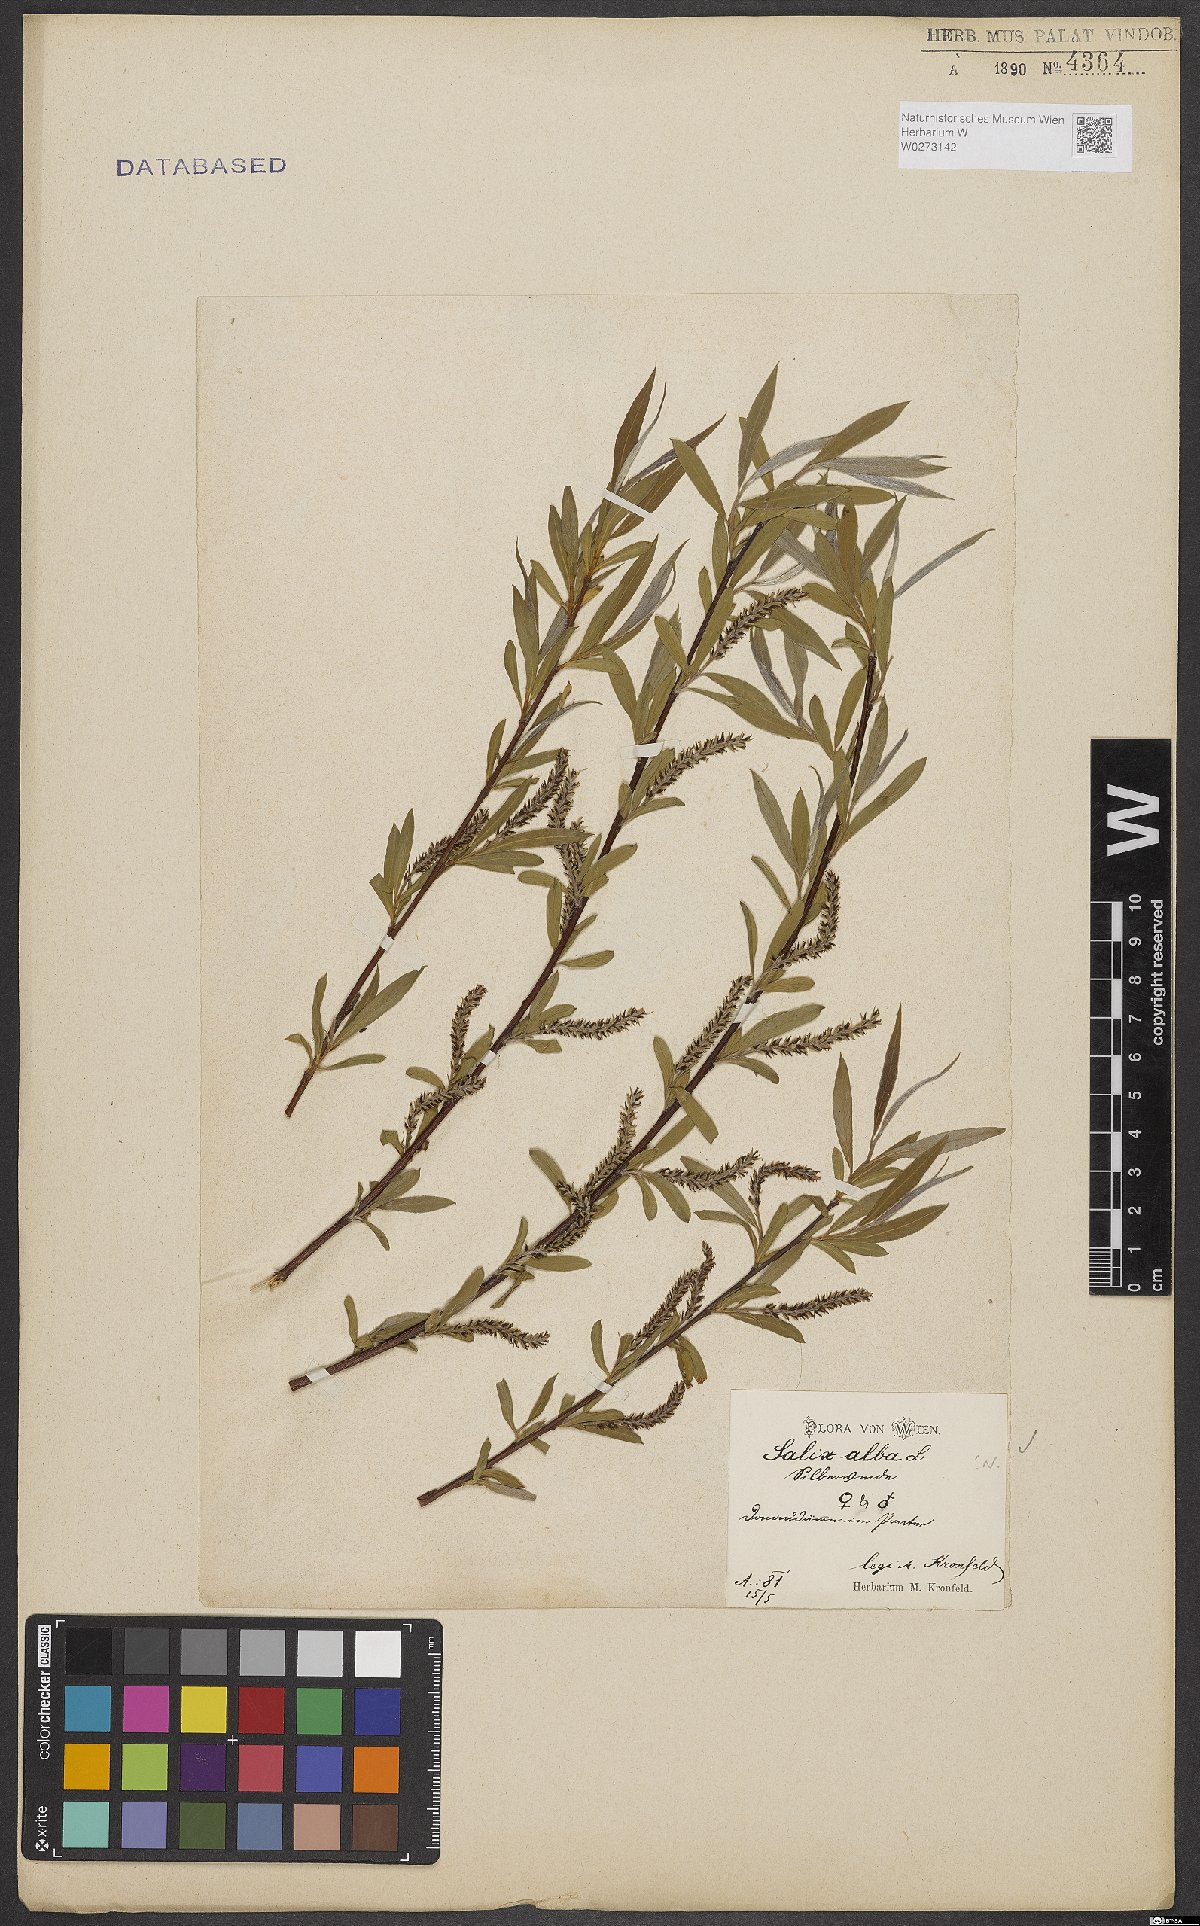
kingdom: Plantae
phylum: Tracheophyta
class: Magnoliopsida
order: Malpighiales
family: Salicaceae
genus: Salix
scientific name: Salix alba
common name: White willow
